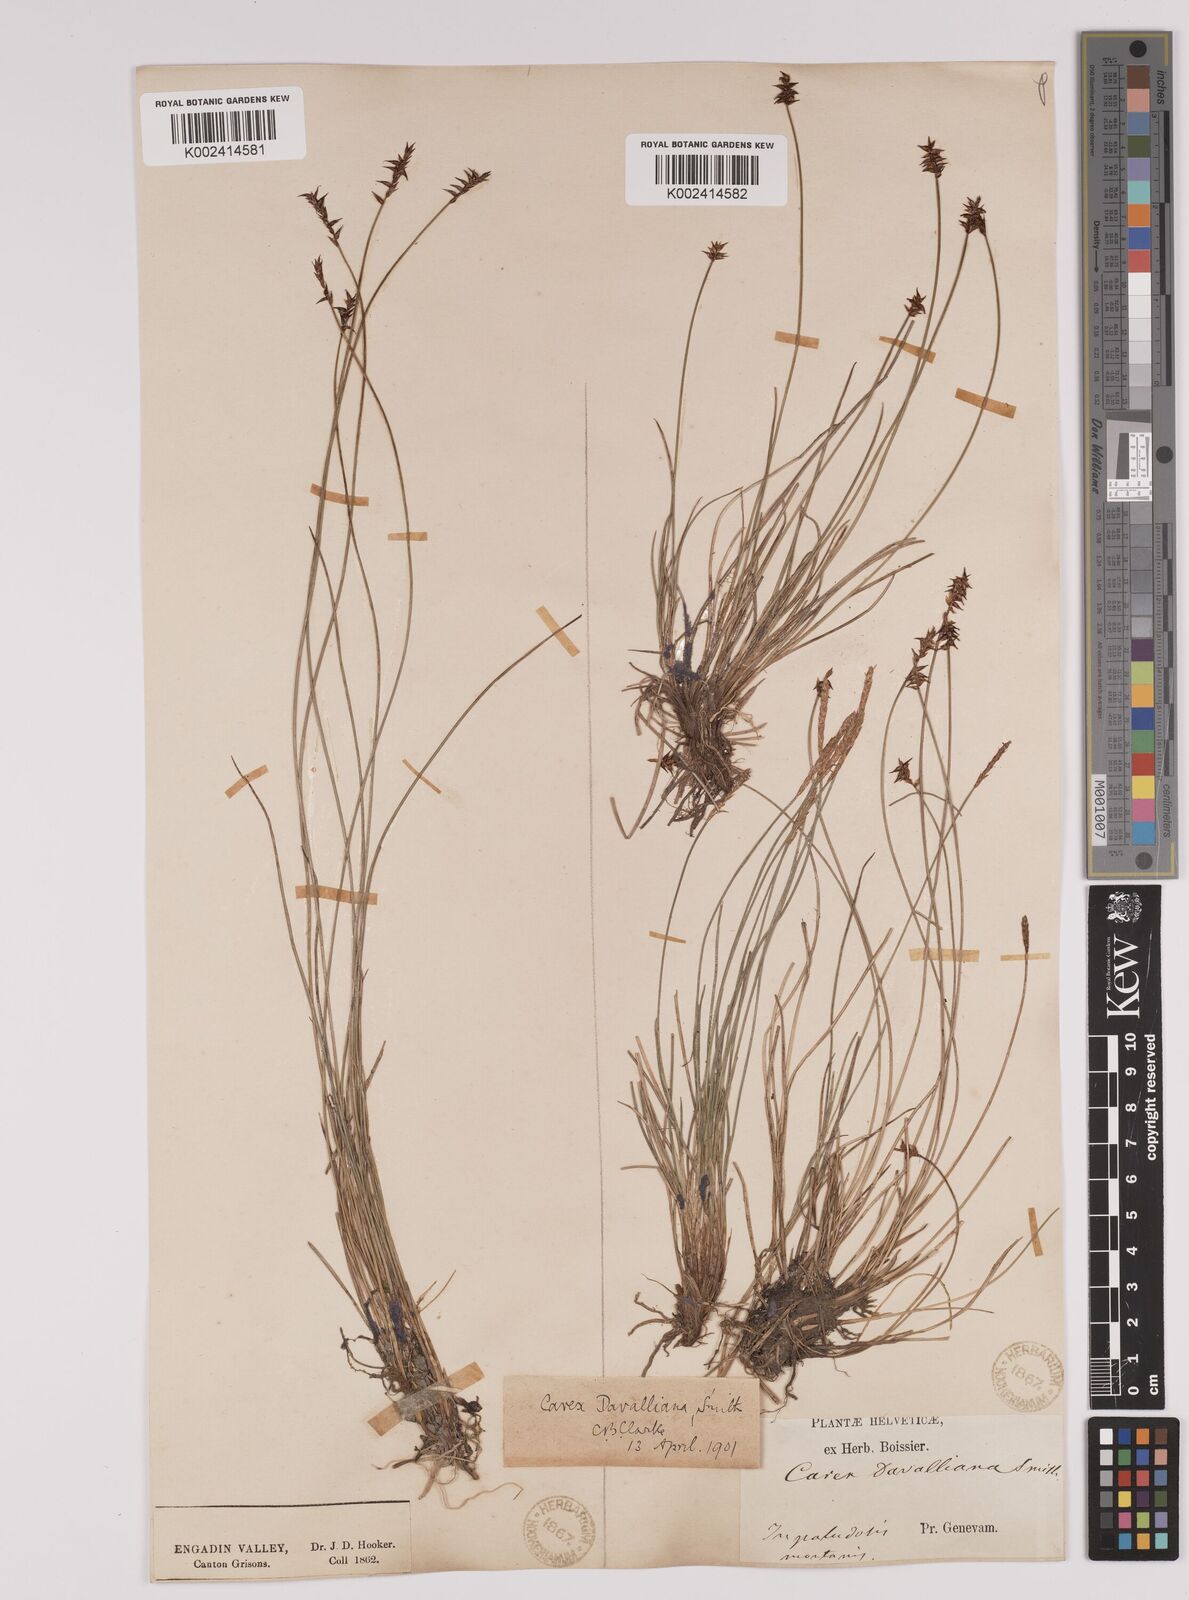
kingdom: Plantae
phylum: Tracheophyta
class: Liliopsida
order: Poales
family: Cyperaceae
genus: Carex
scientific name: Carex davalliana
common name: Davall's sedge
